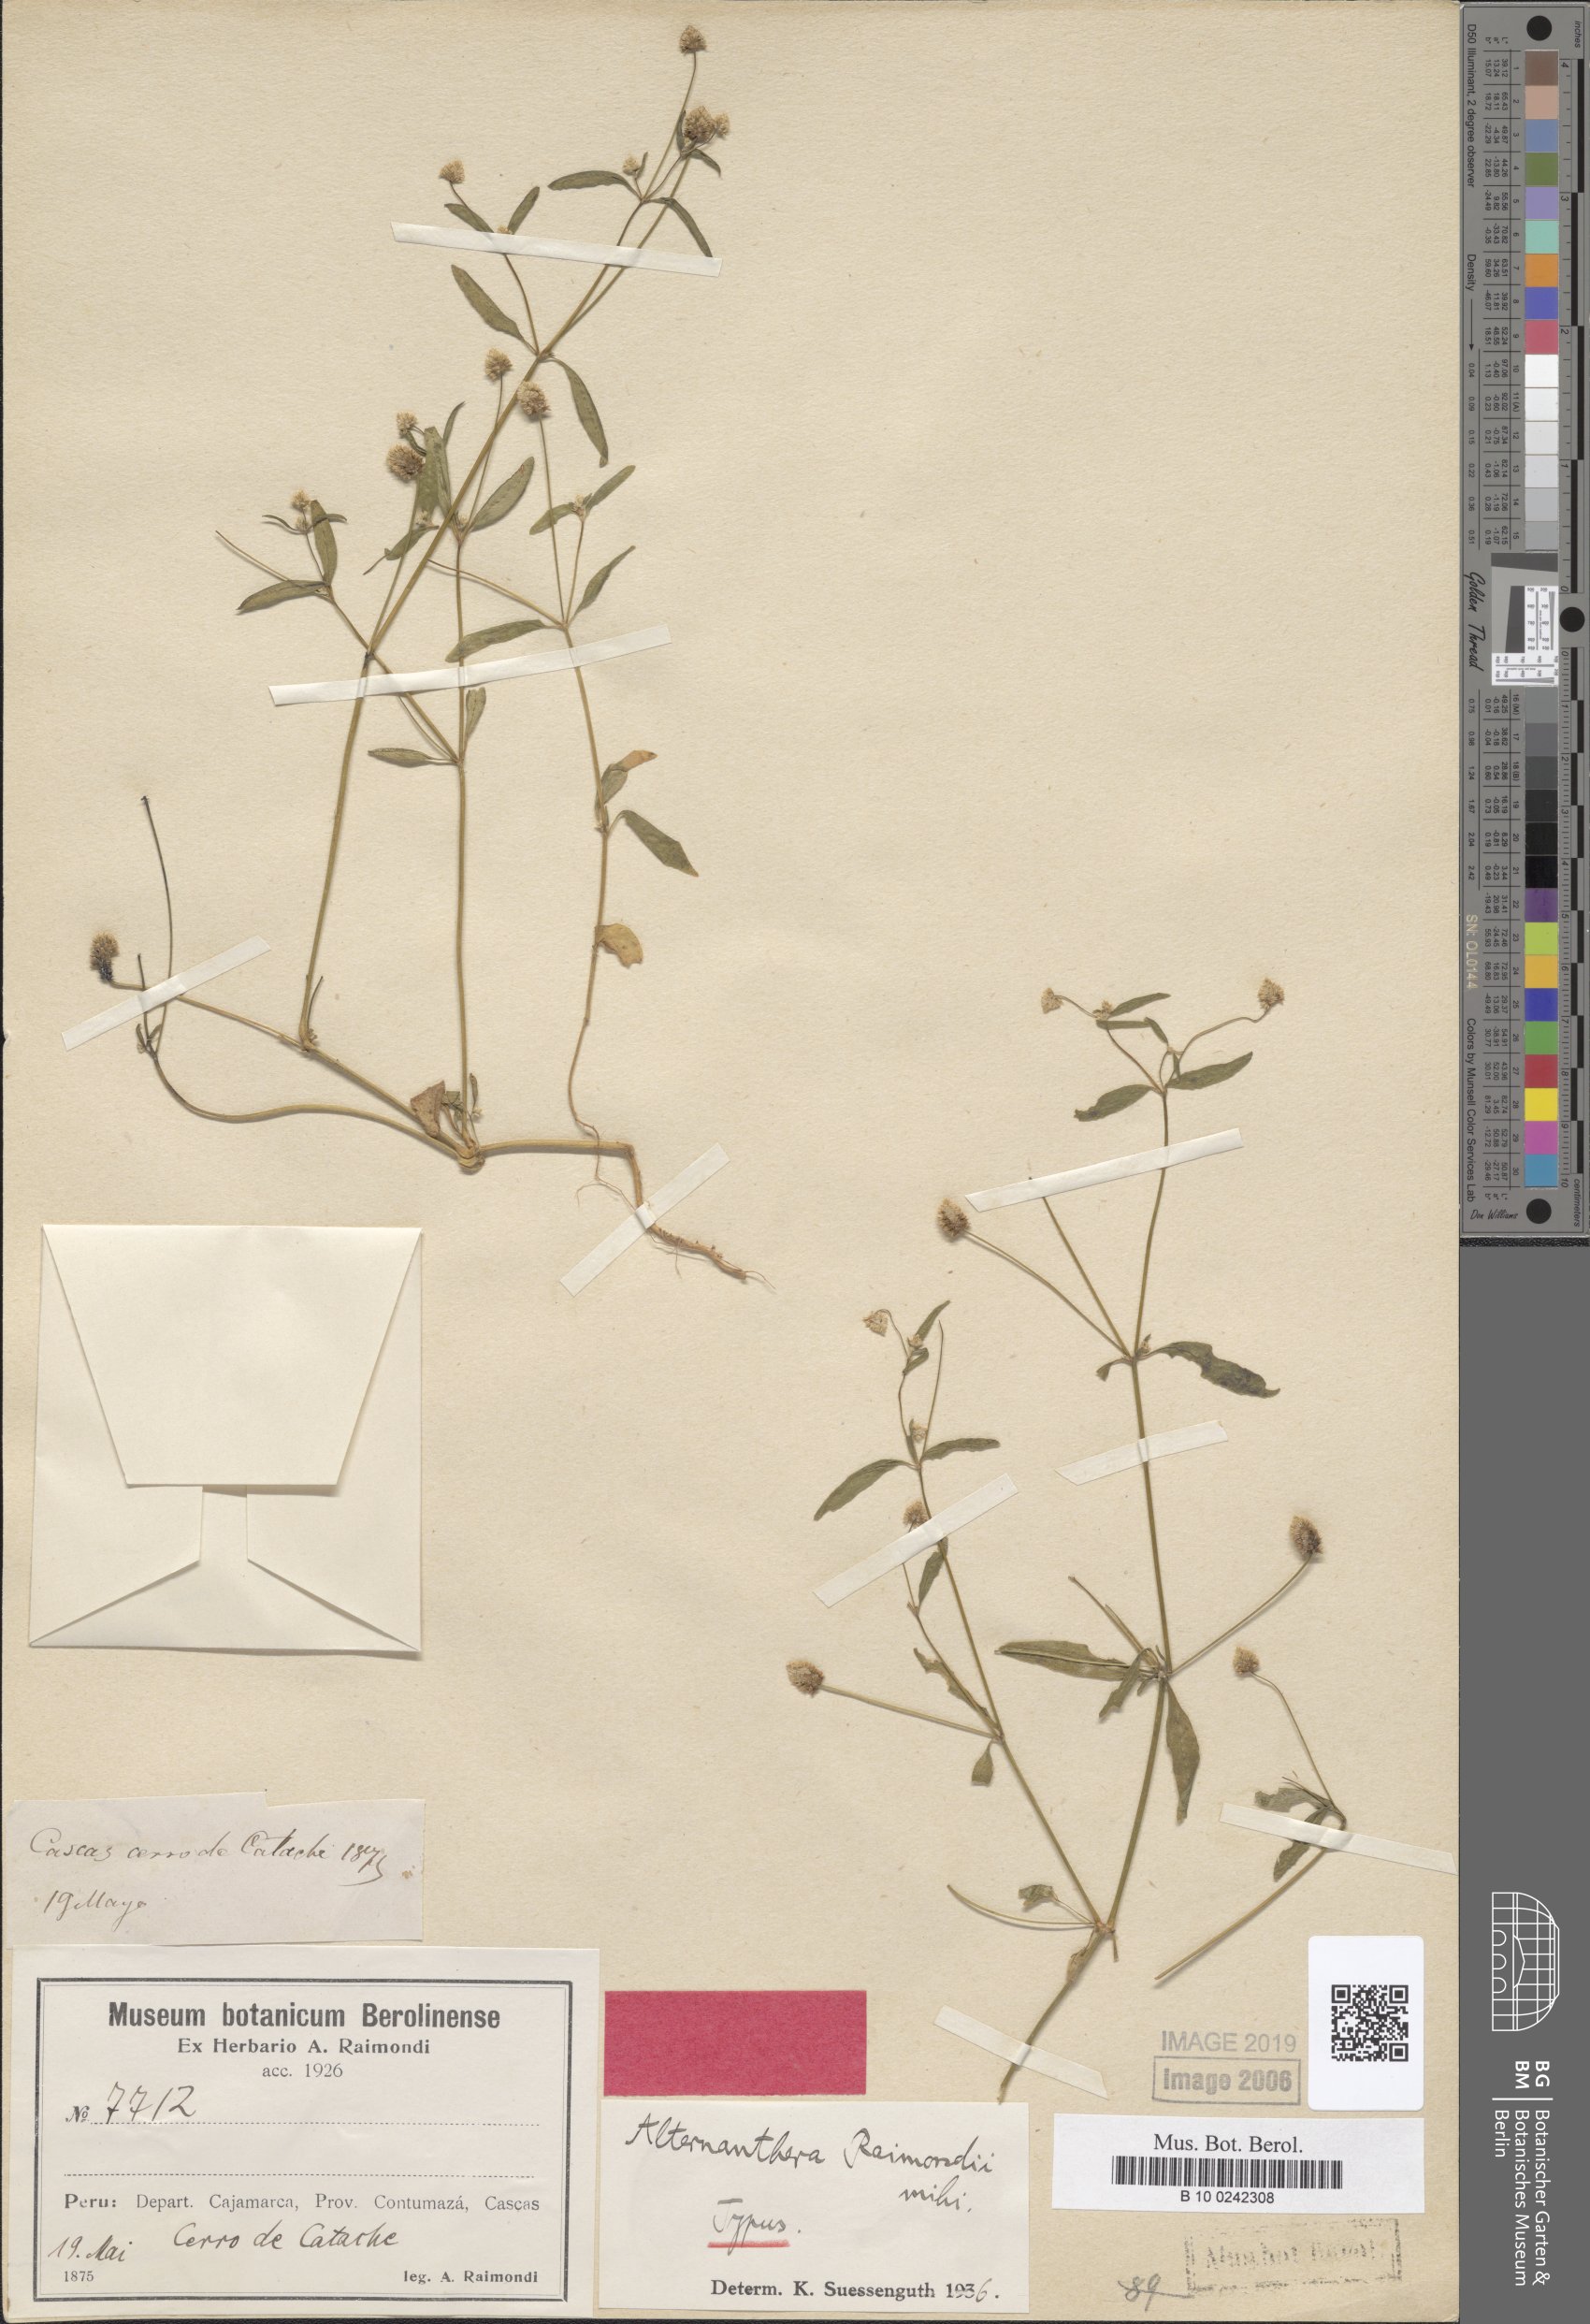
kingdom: Plantae
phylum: Tracheophyta
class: Magnoliopsida
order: Caryophyllales
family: Amaranthaceae
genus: Alternanthera
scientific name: Alternanthera dominii
